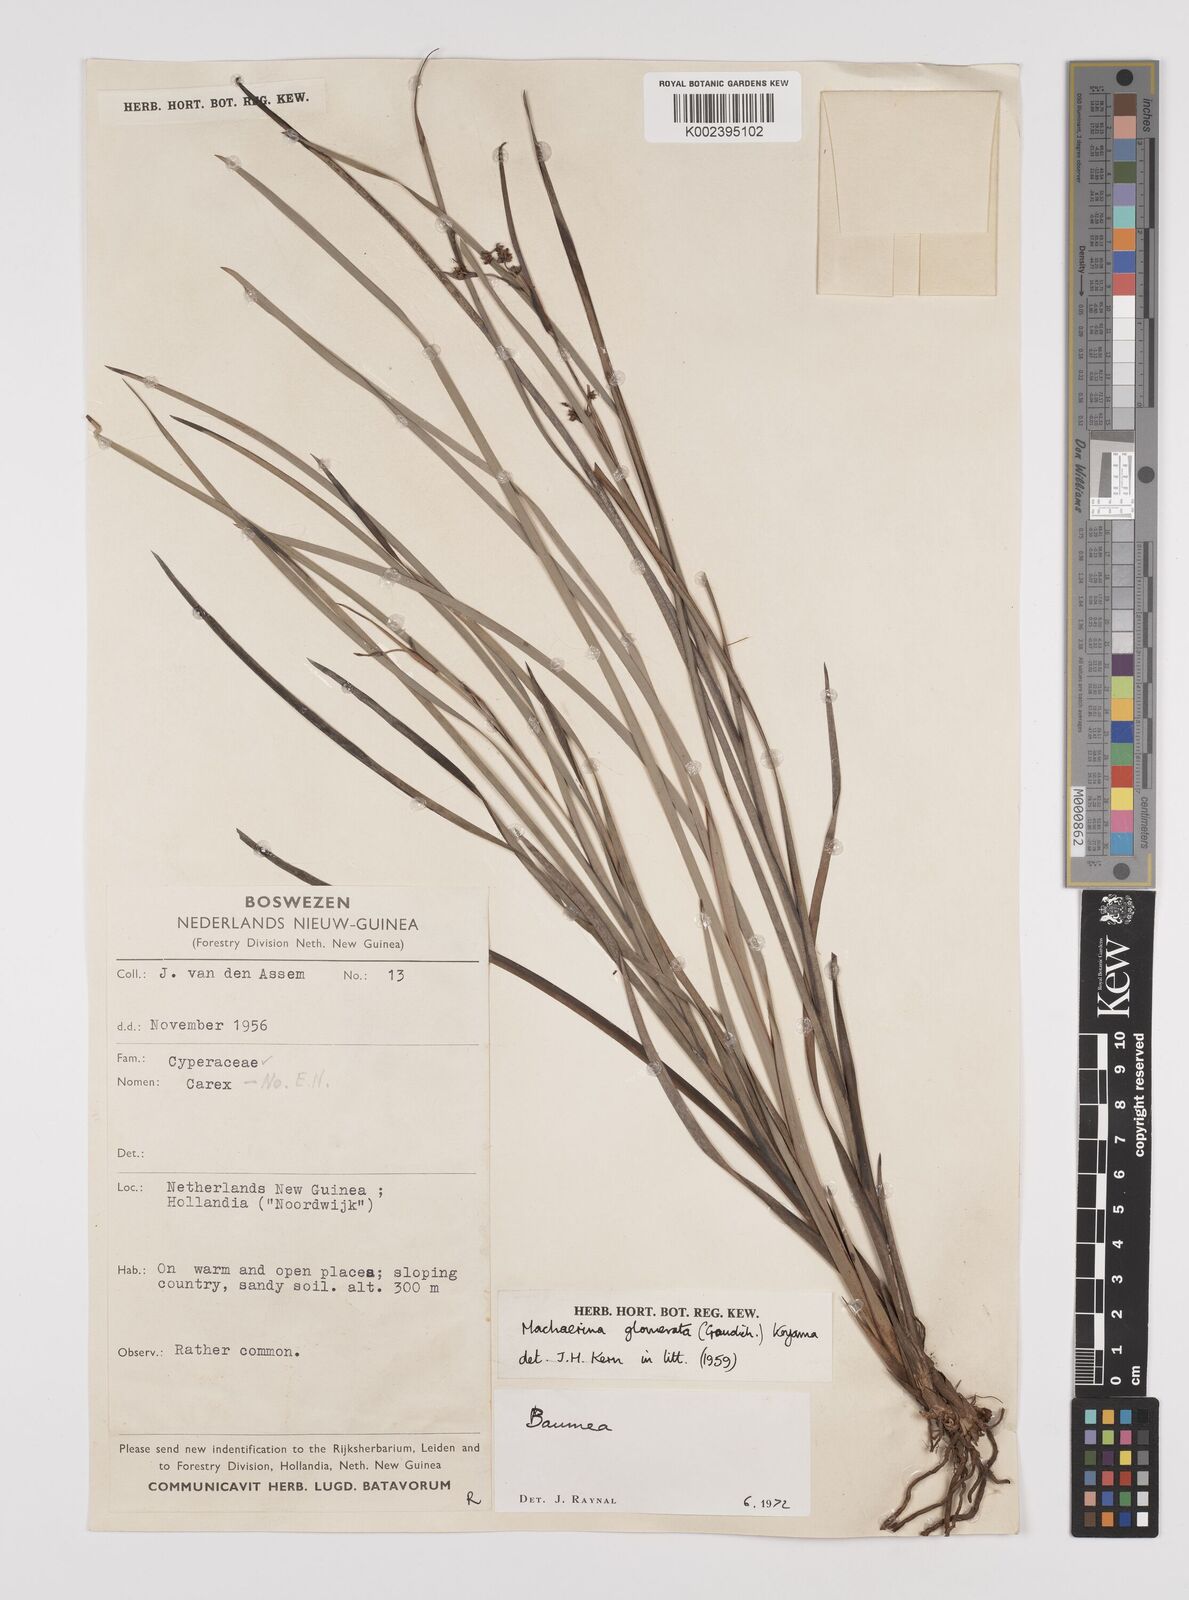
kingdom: Plantae
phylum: Tracheophyta
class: Liliopsida
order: Poales
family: Cyperaceae
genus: Machaerina
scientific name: Machaerina glomerata
